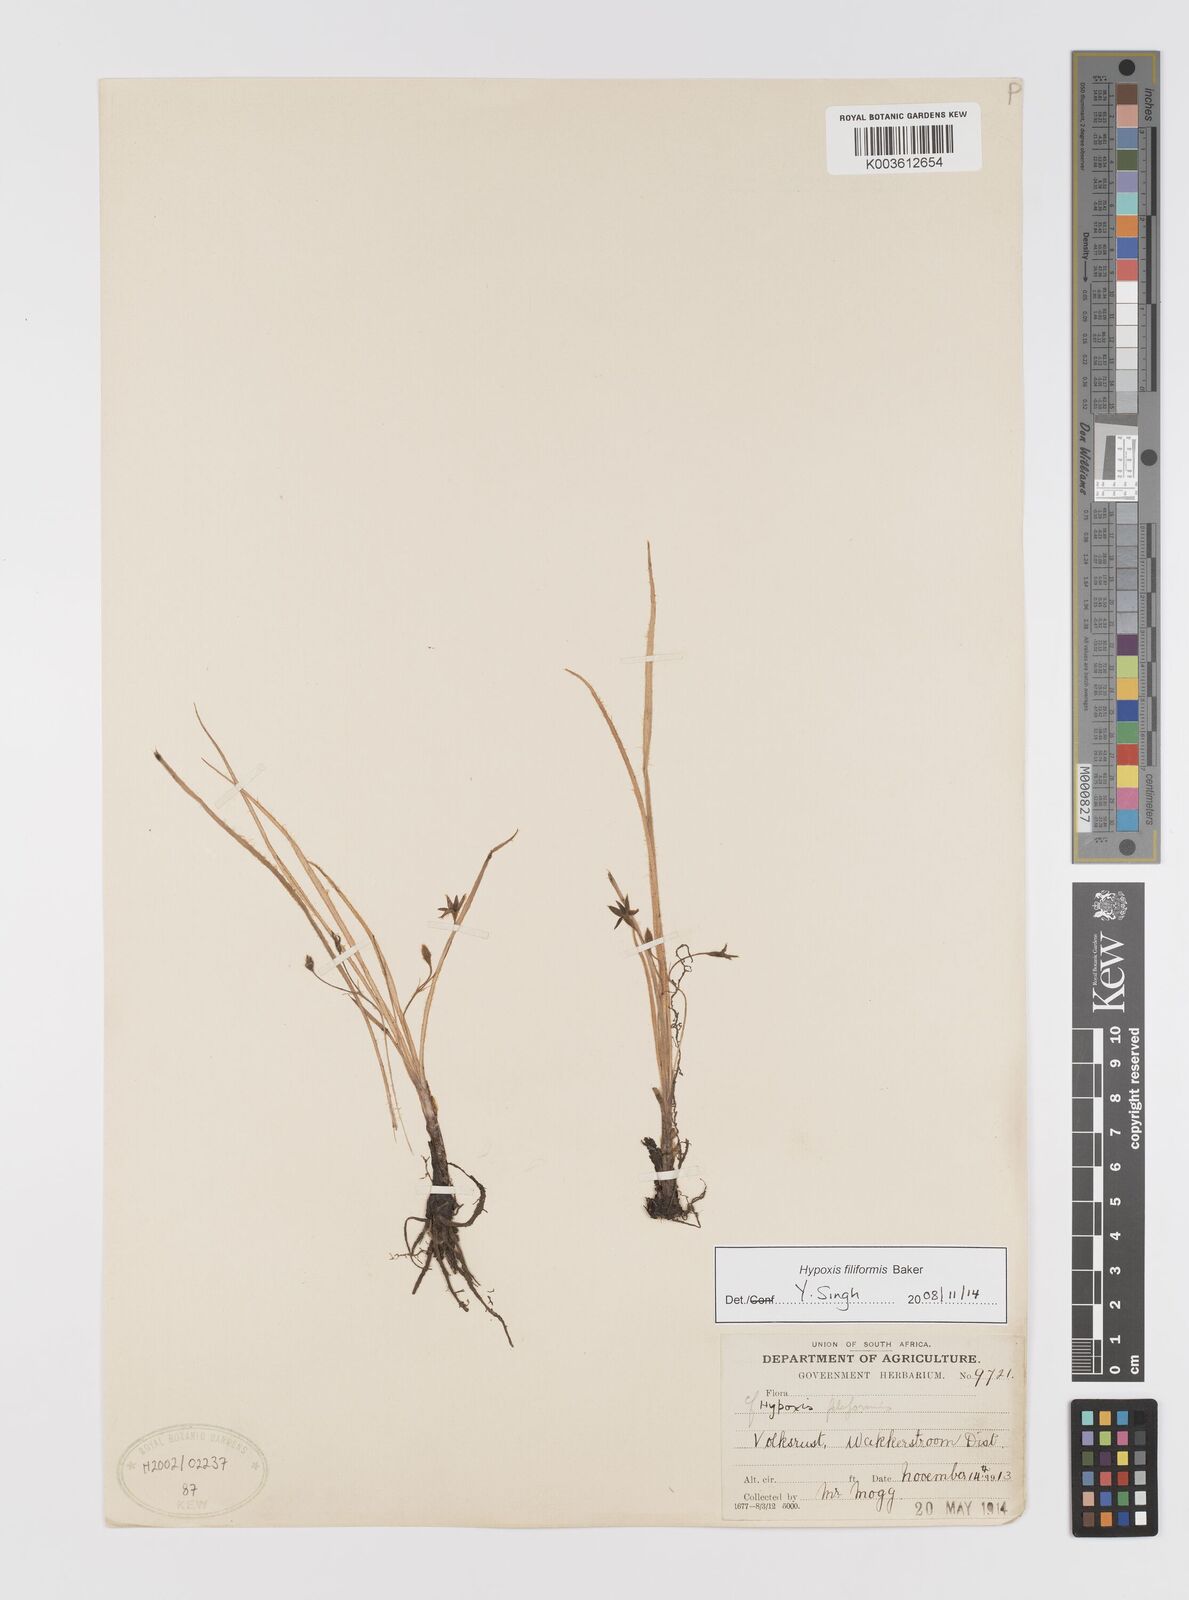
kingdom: Plantae
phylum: Tracheophyta
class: Liliopsida
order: Asparagales
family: Hypoxidaceae
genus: Hypoxis
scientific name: Hypoxis filiformis
